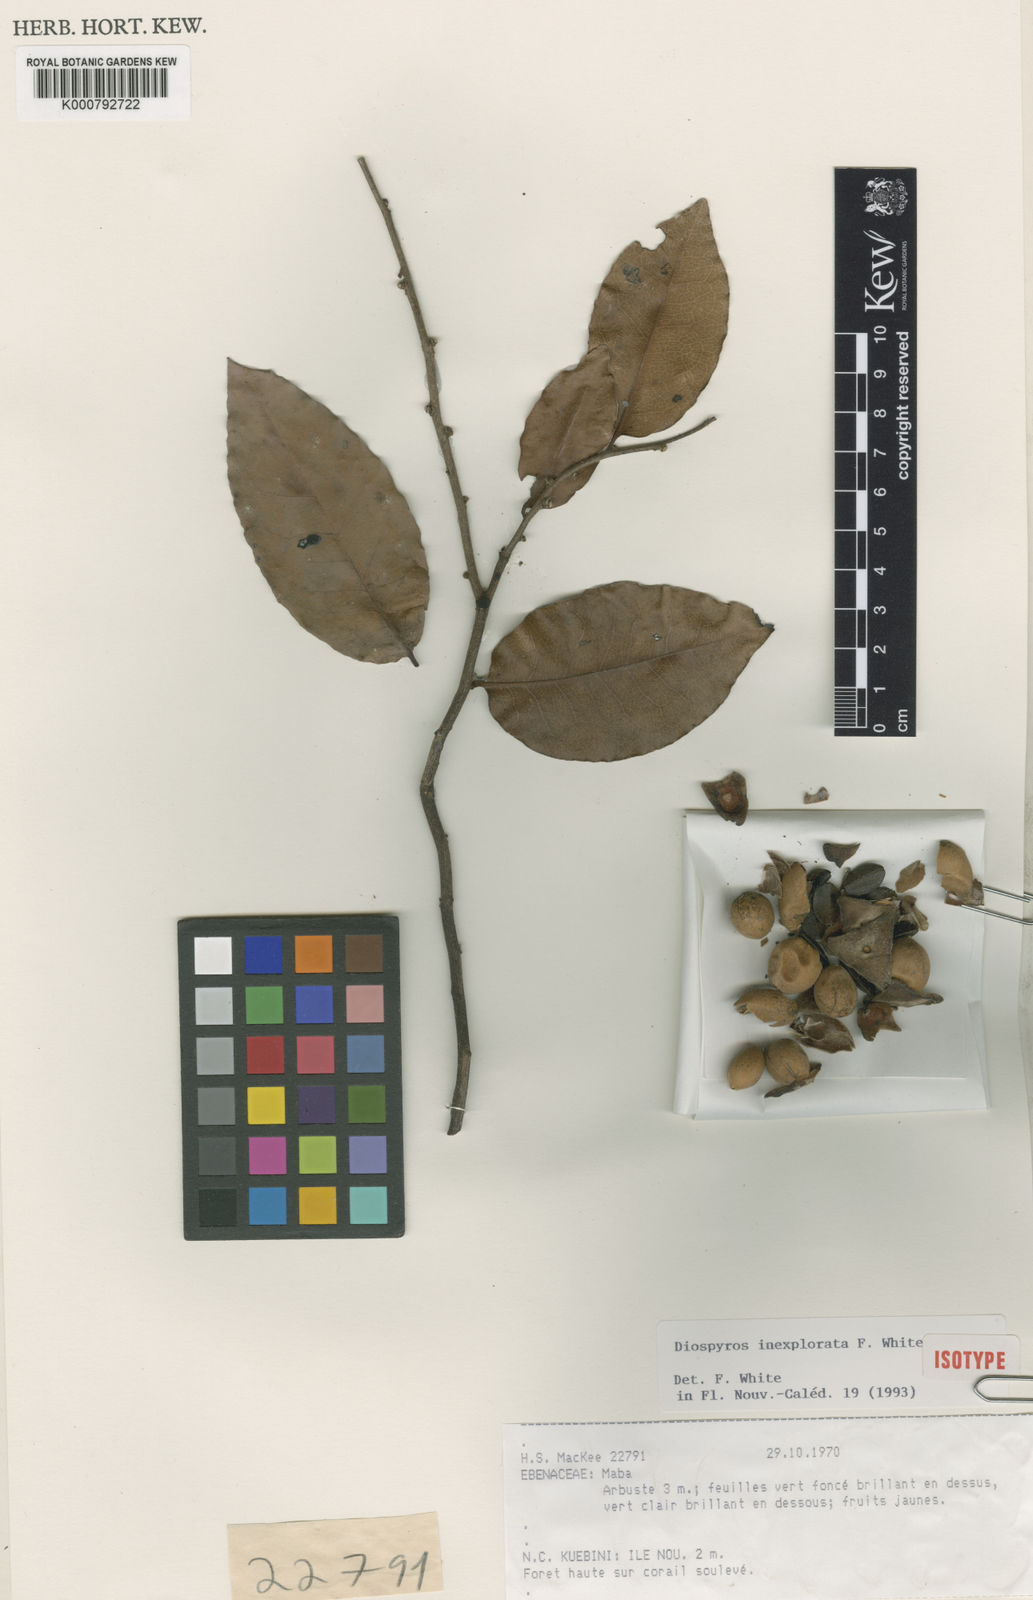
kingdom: Plantae
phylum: Tracheophyta
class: Magnoliopsida
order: Ericales
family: Ebenaceae
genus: Diospyros
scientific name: Diospyros calciphila
